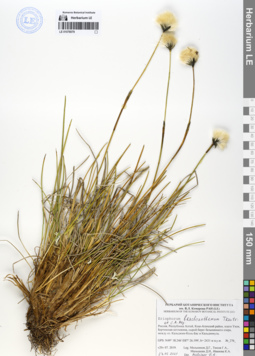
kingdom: Plantae
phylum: Tracheophyta
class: Liliopsida
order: Poales
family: Cyperaceae
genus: Eriophorum
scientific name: Eriophorum brachyantherum
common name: Closed-sheathed cottongrass
